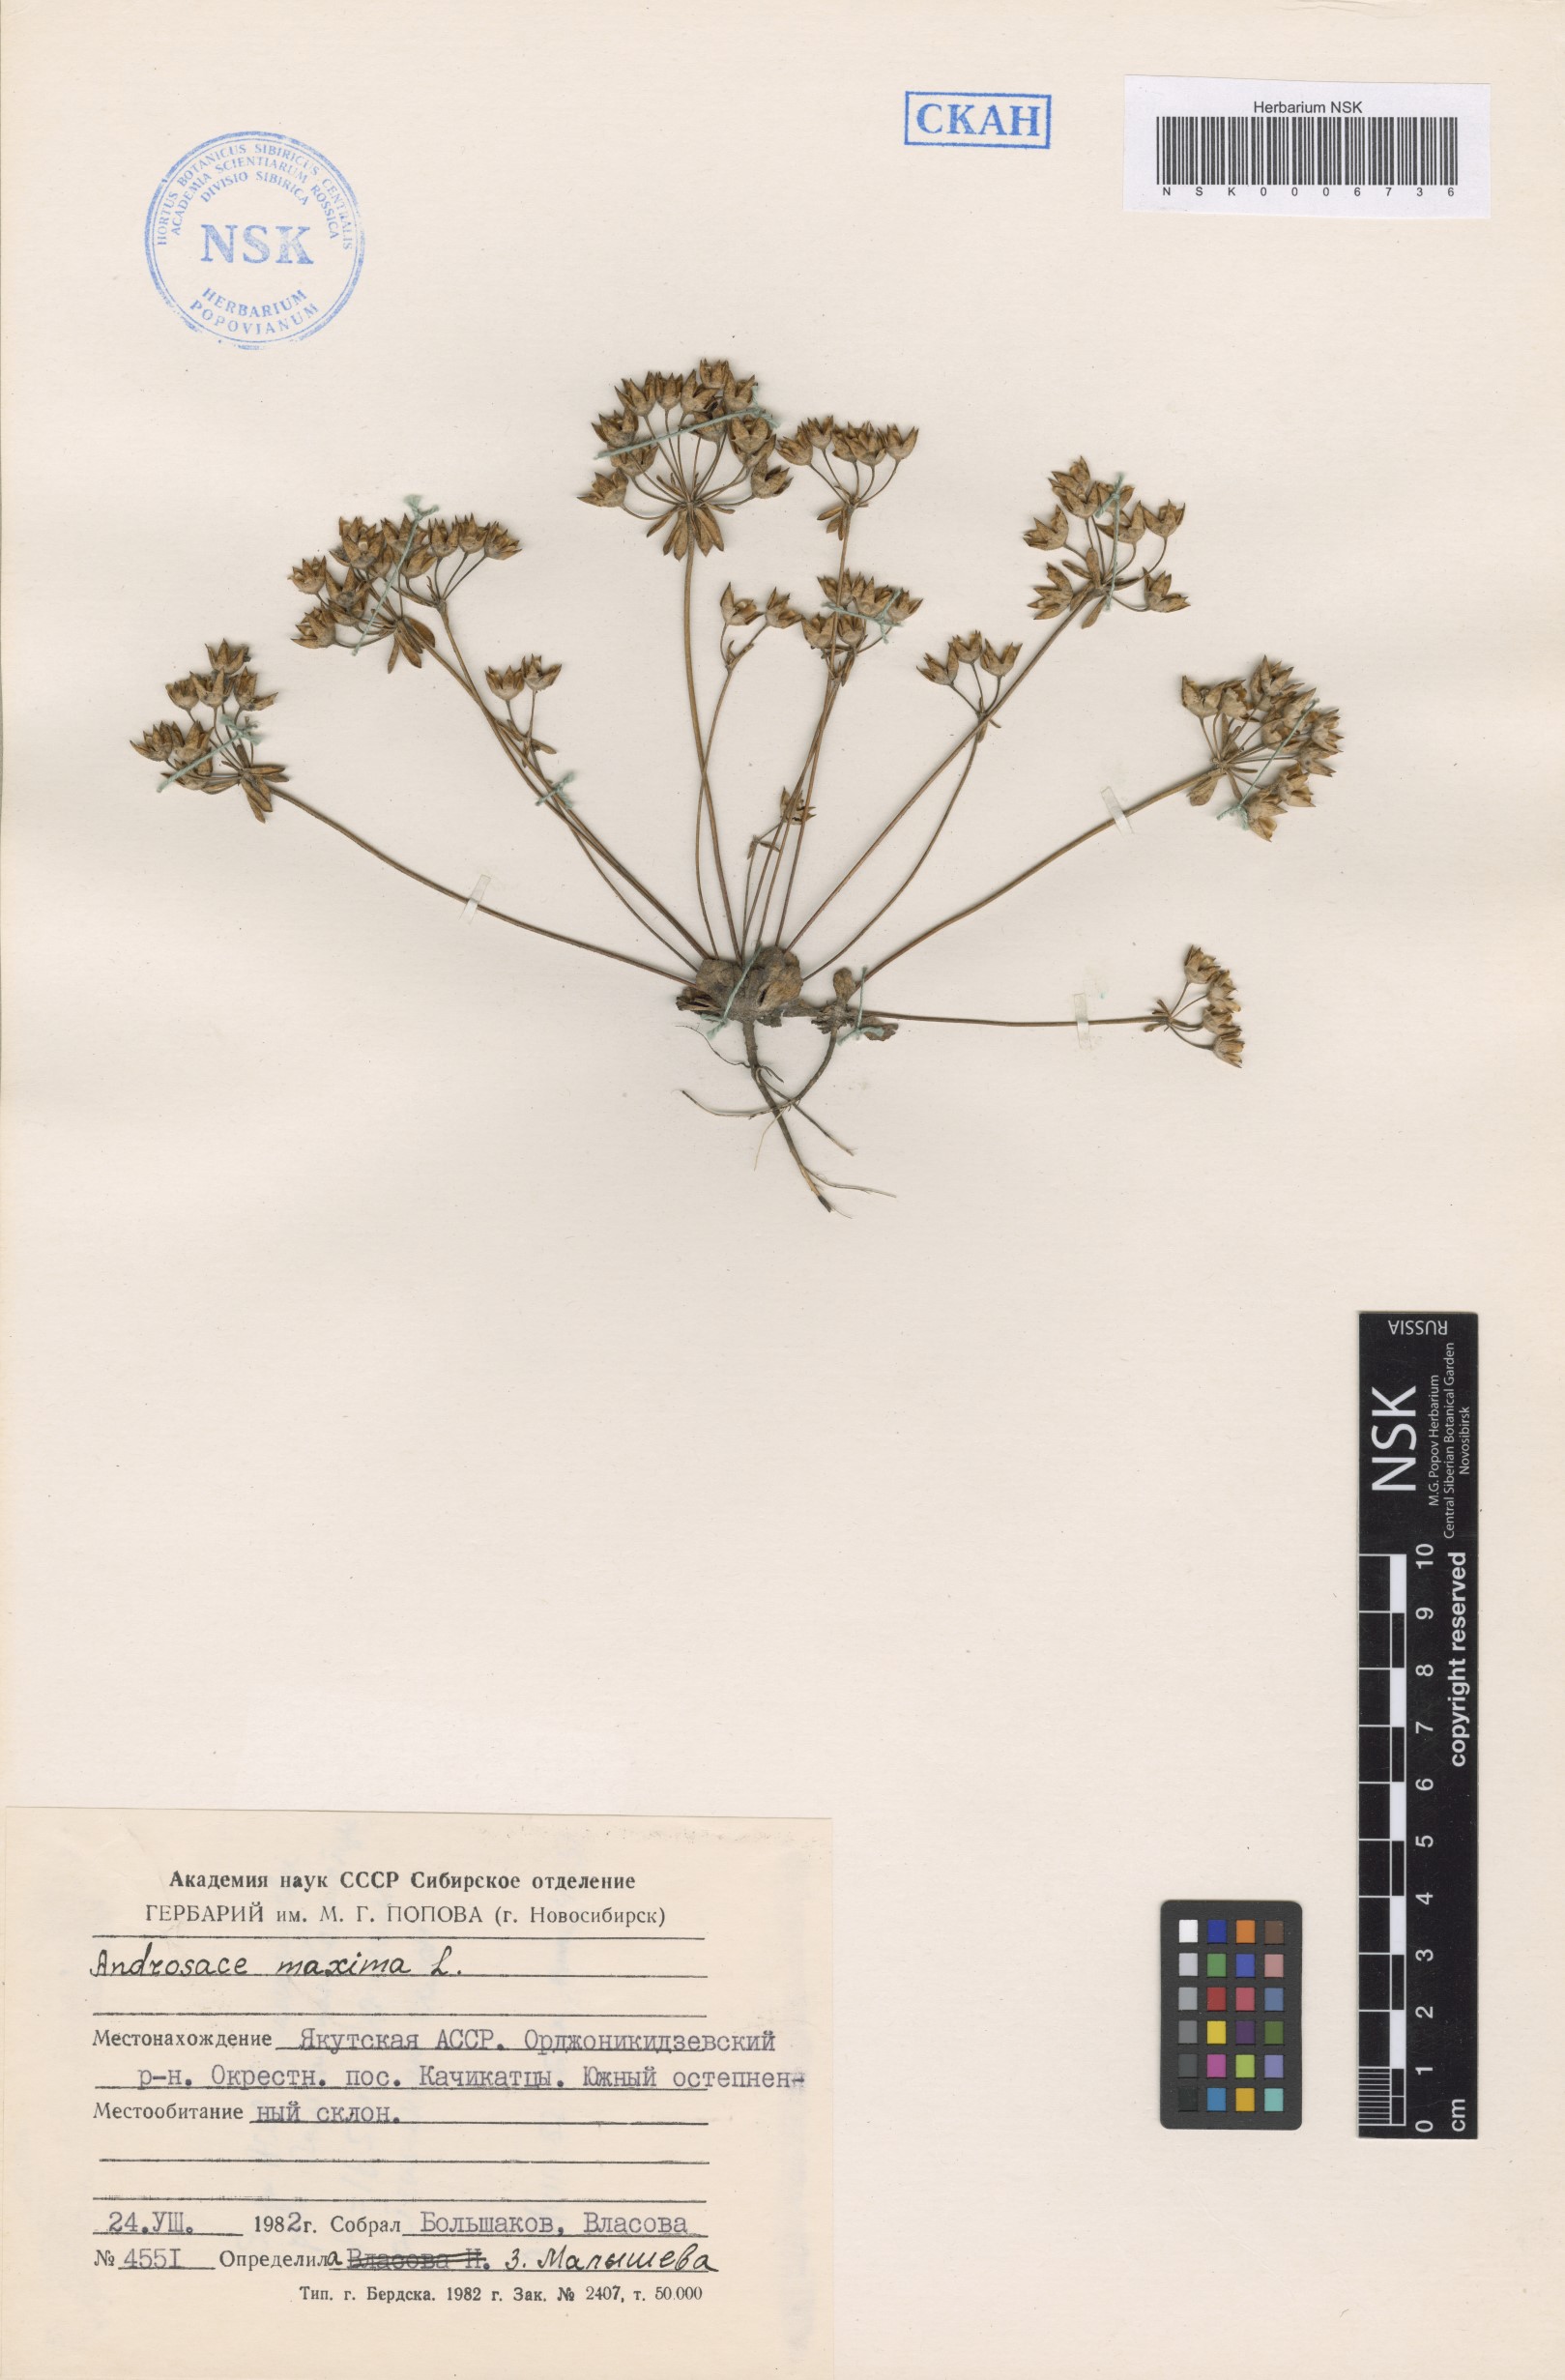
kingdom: Plantae
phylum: Tracheophyta
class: Magnoliopsida
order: Ericales
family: Primulaceae
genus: Androsace
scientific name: Androsace maxima
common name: Annual androsace
